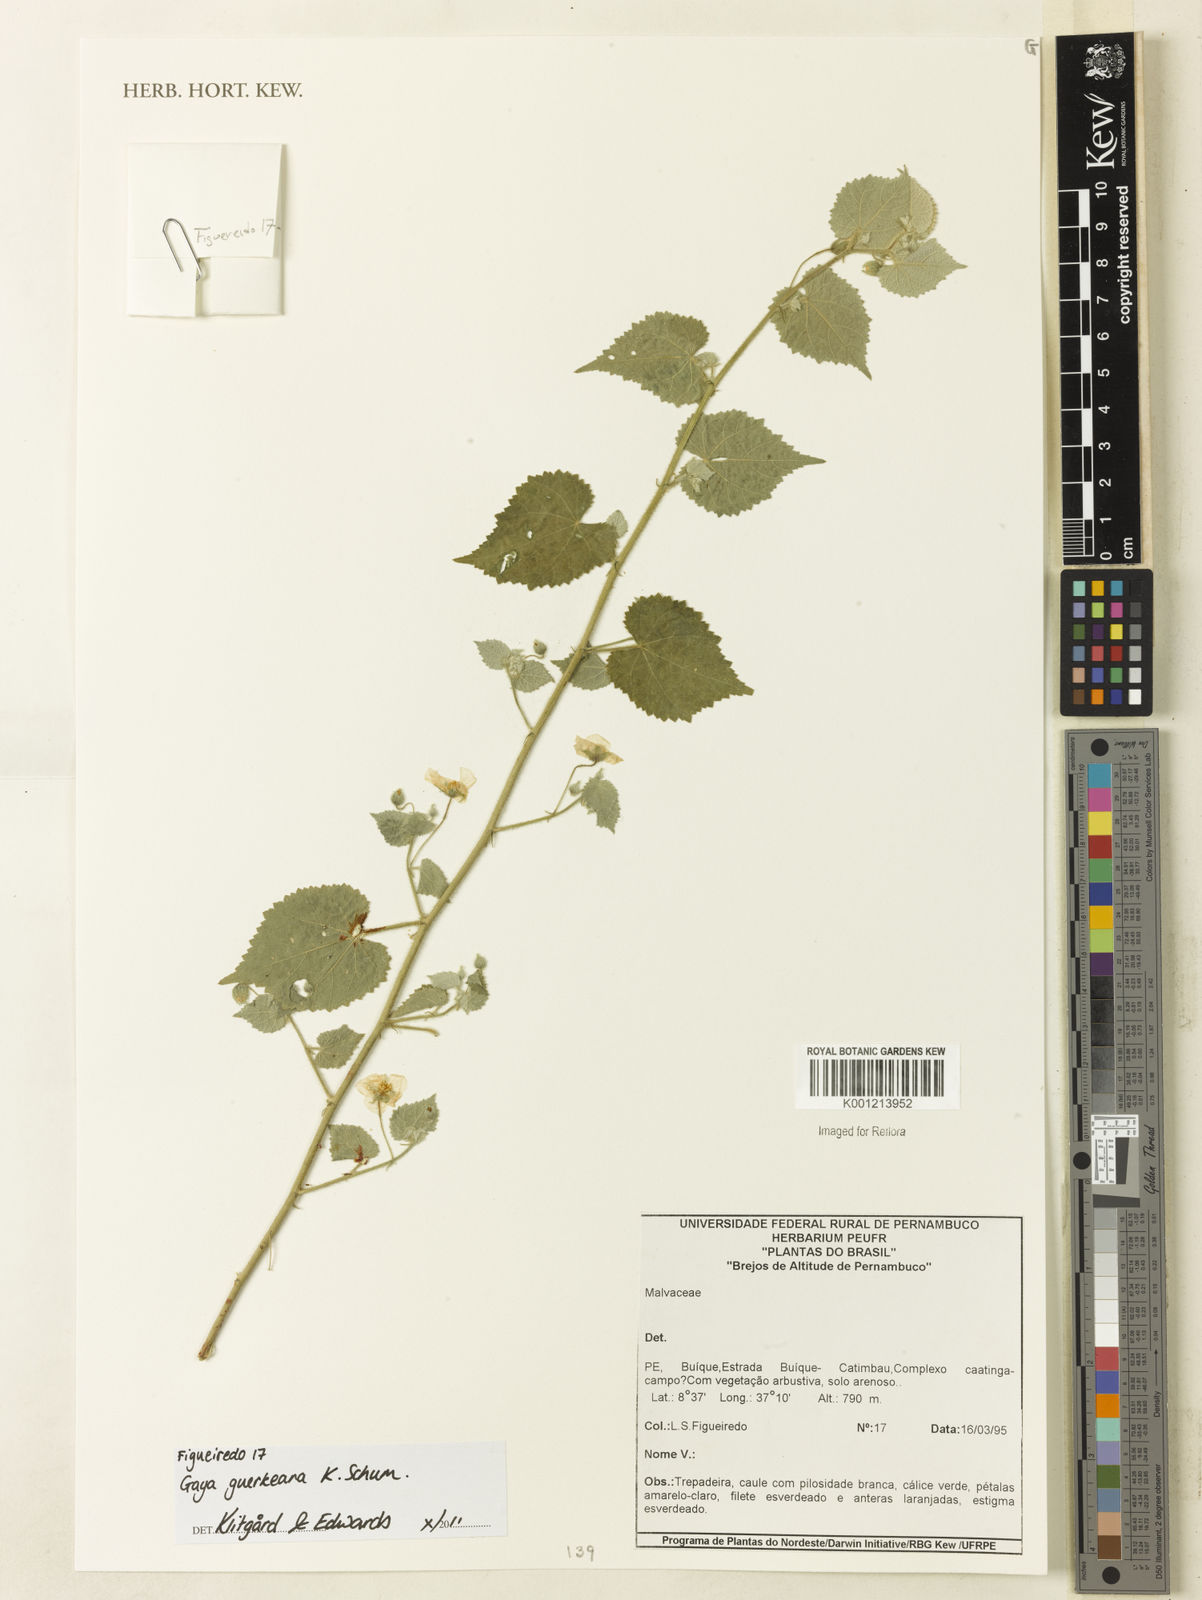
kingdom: Plantae
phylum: Tracheophyta
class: Magnoliopsida
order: Malvales
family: Malvaceae
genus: Gaya
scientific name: Gaya guerkeana
